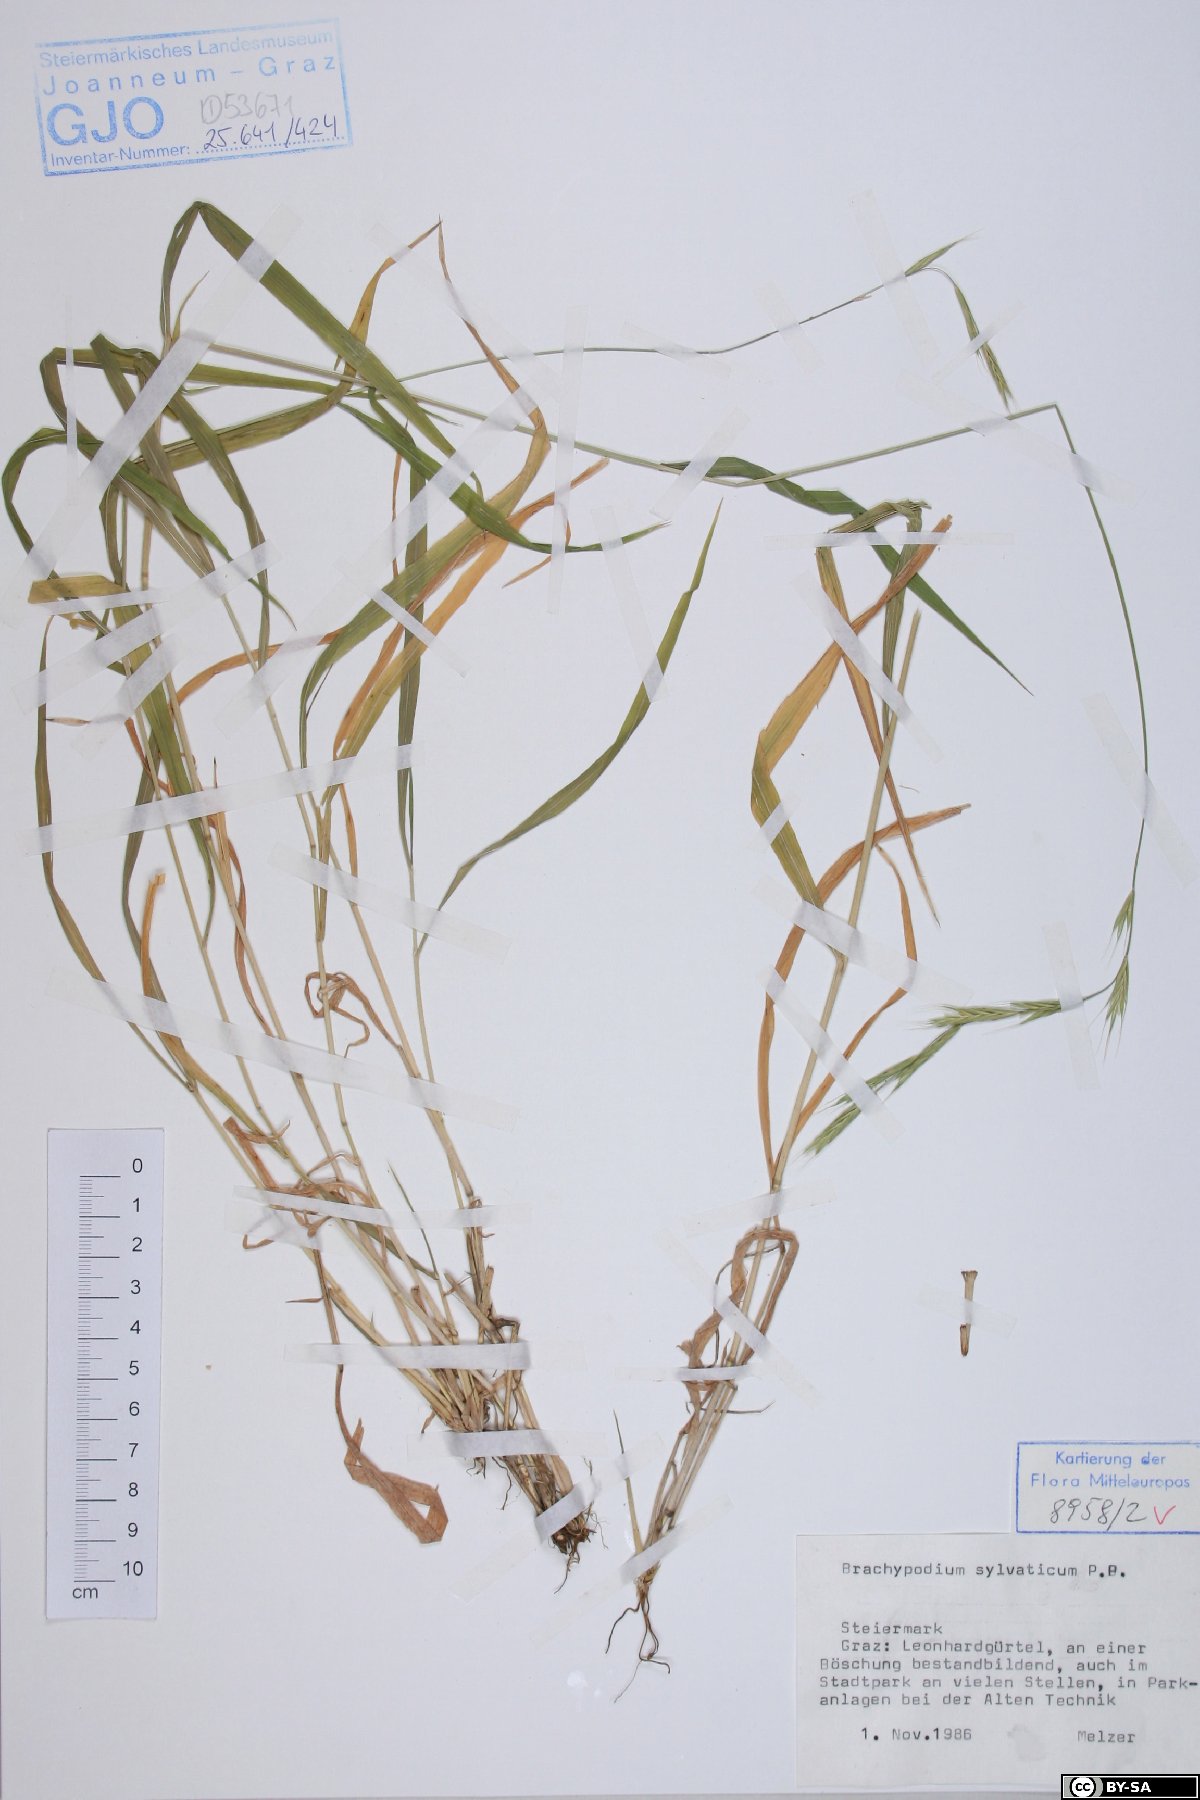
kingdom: Plantae
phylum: Tracheophyta
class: Liliopsida
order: Poales
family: Poaceae
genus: Brachypodium
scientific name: Brachypodium sylvaticum
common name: False-brome
